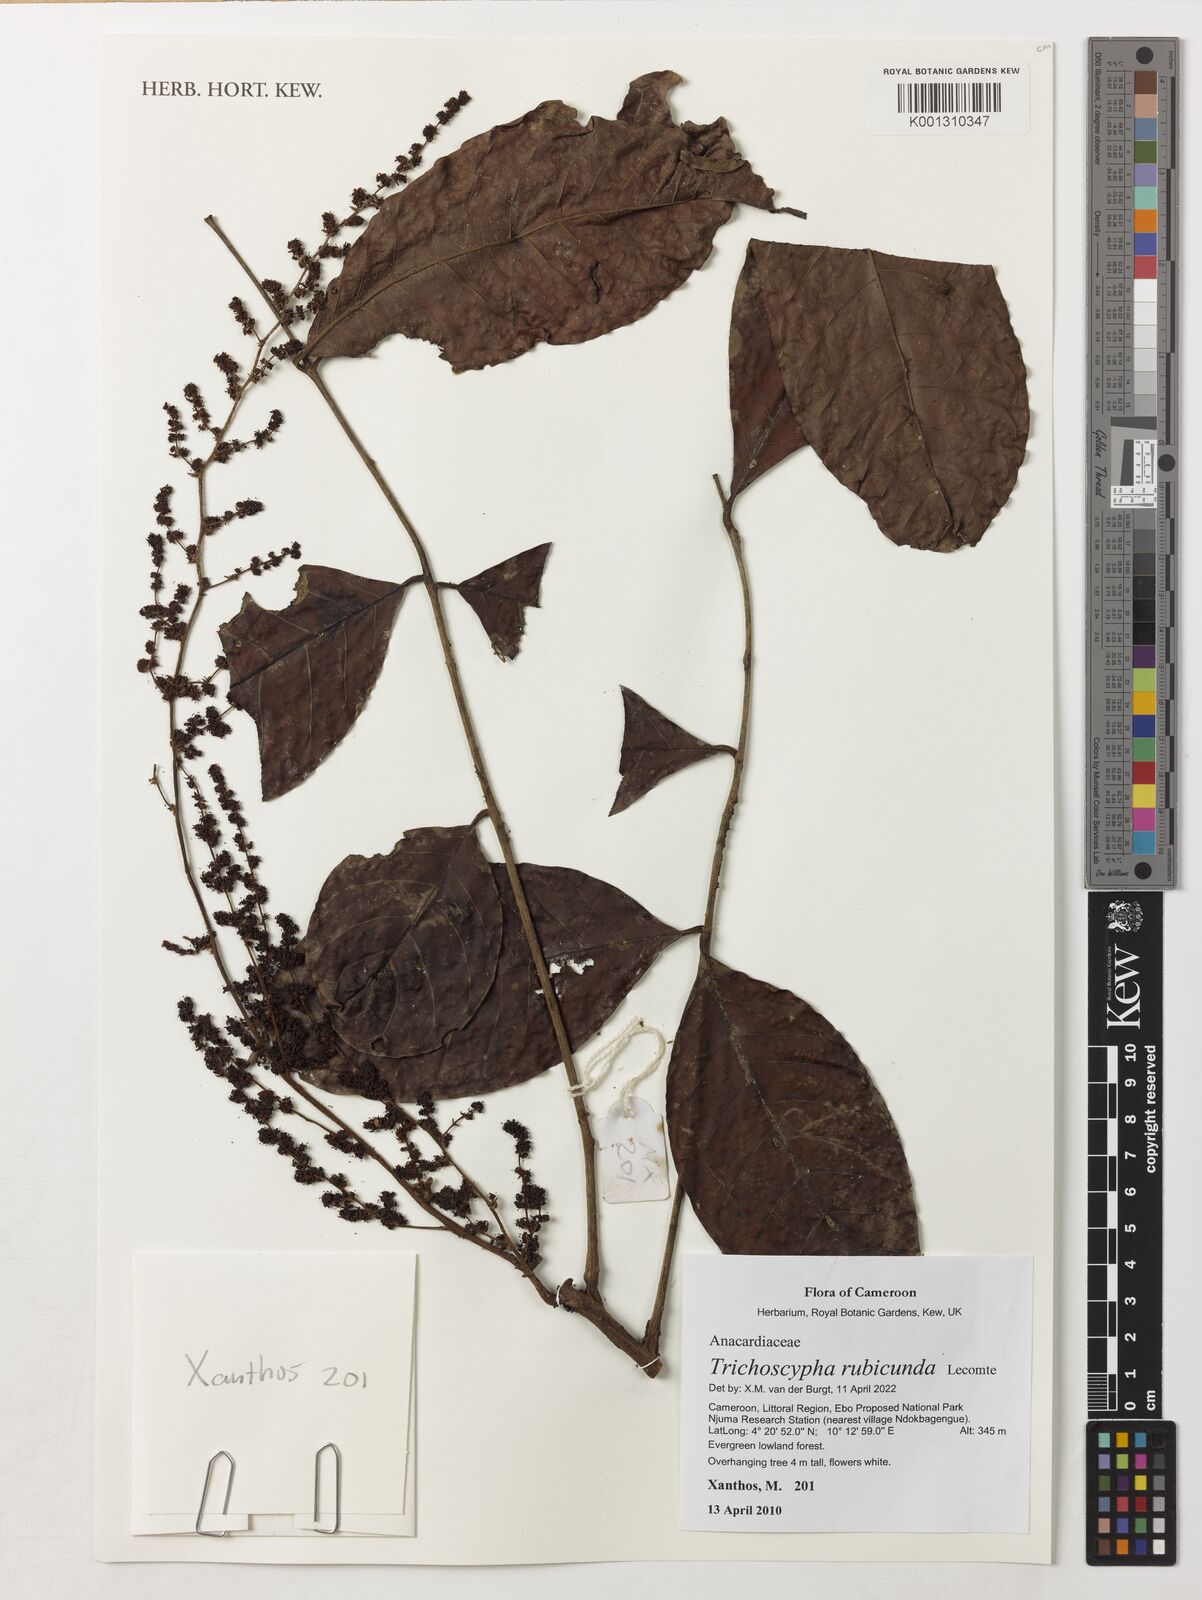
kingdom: Plantae
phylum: Tracheophyta
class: Magnoliopsida
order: Sapindales
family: Anacardiaceae
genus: Trichoscypha
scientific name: Trichoscypha rubicunda
